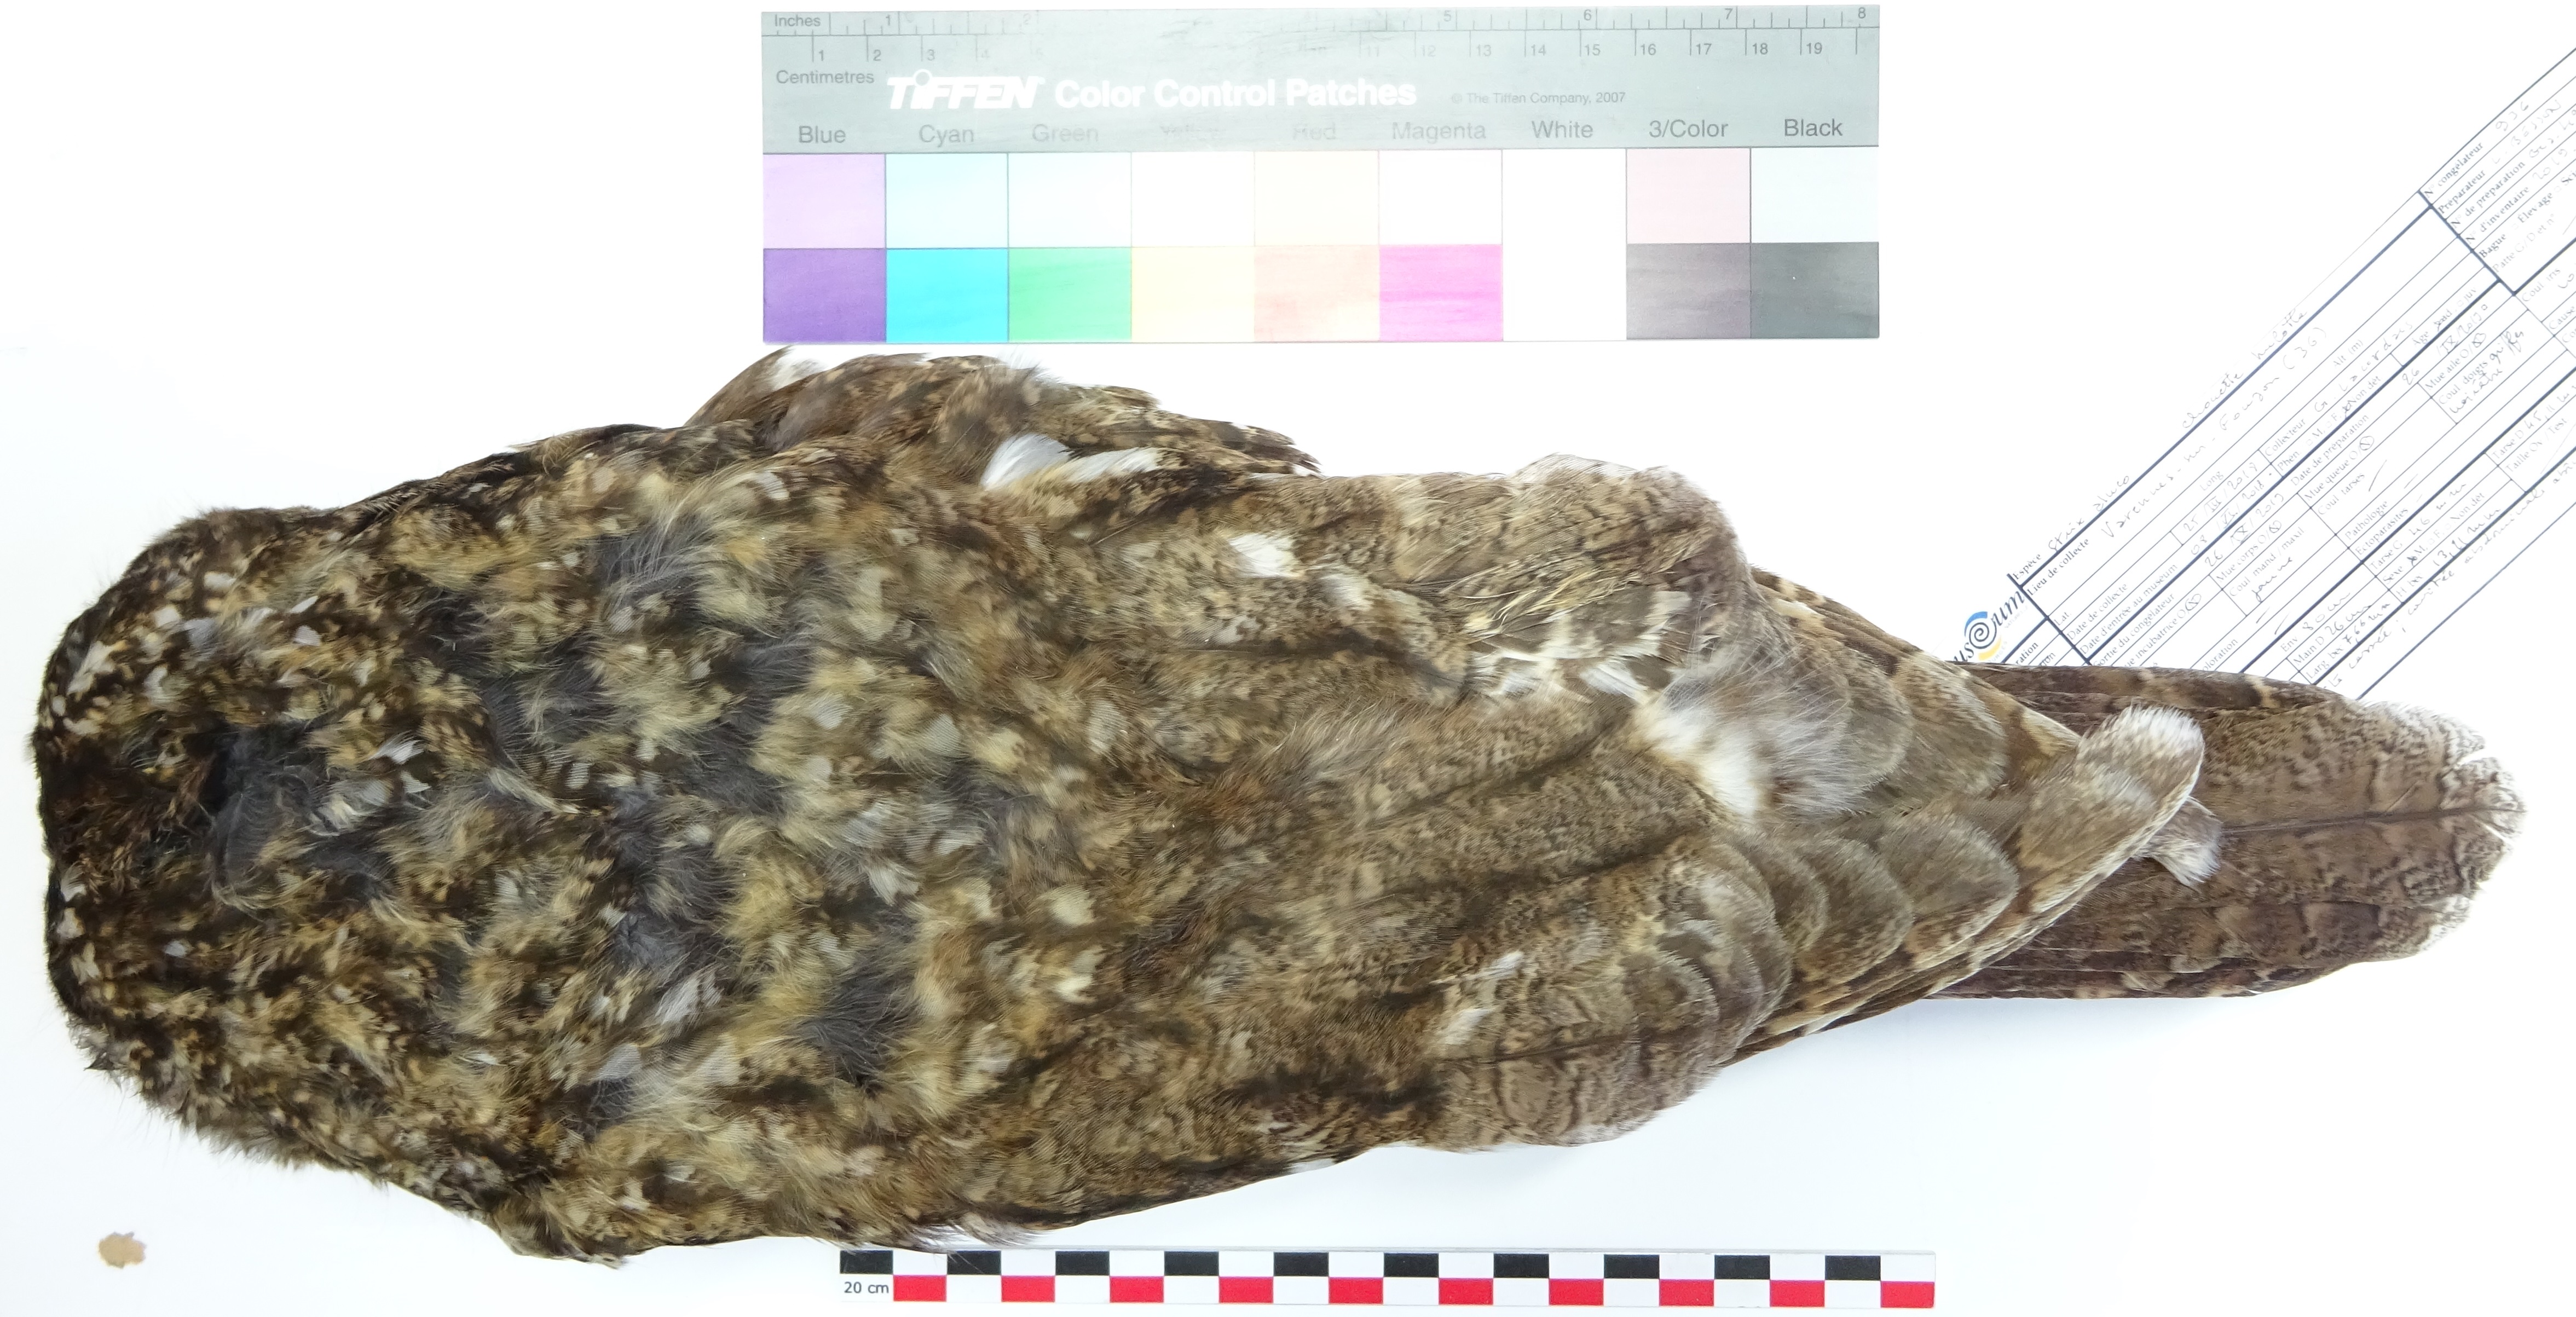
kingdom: Animalia
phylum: Chordata
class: Aves
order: Strigiformes
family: Strigidae
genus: Strix
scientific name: Strix aluco
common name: Tawny owl
